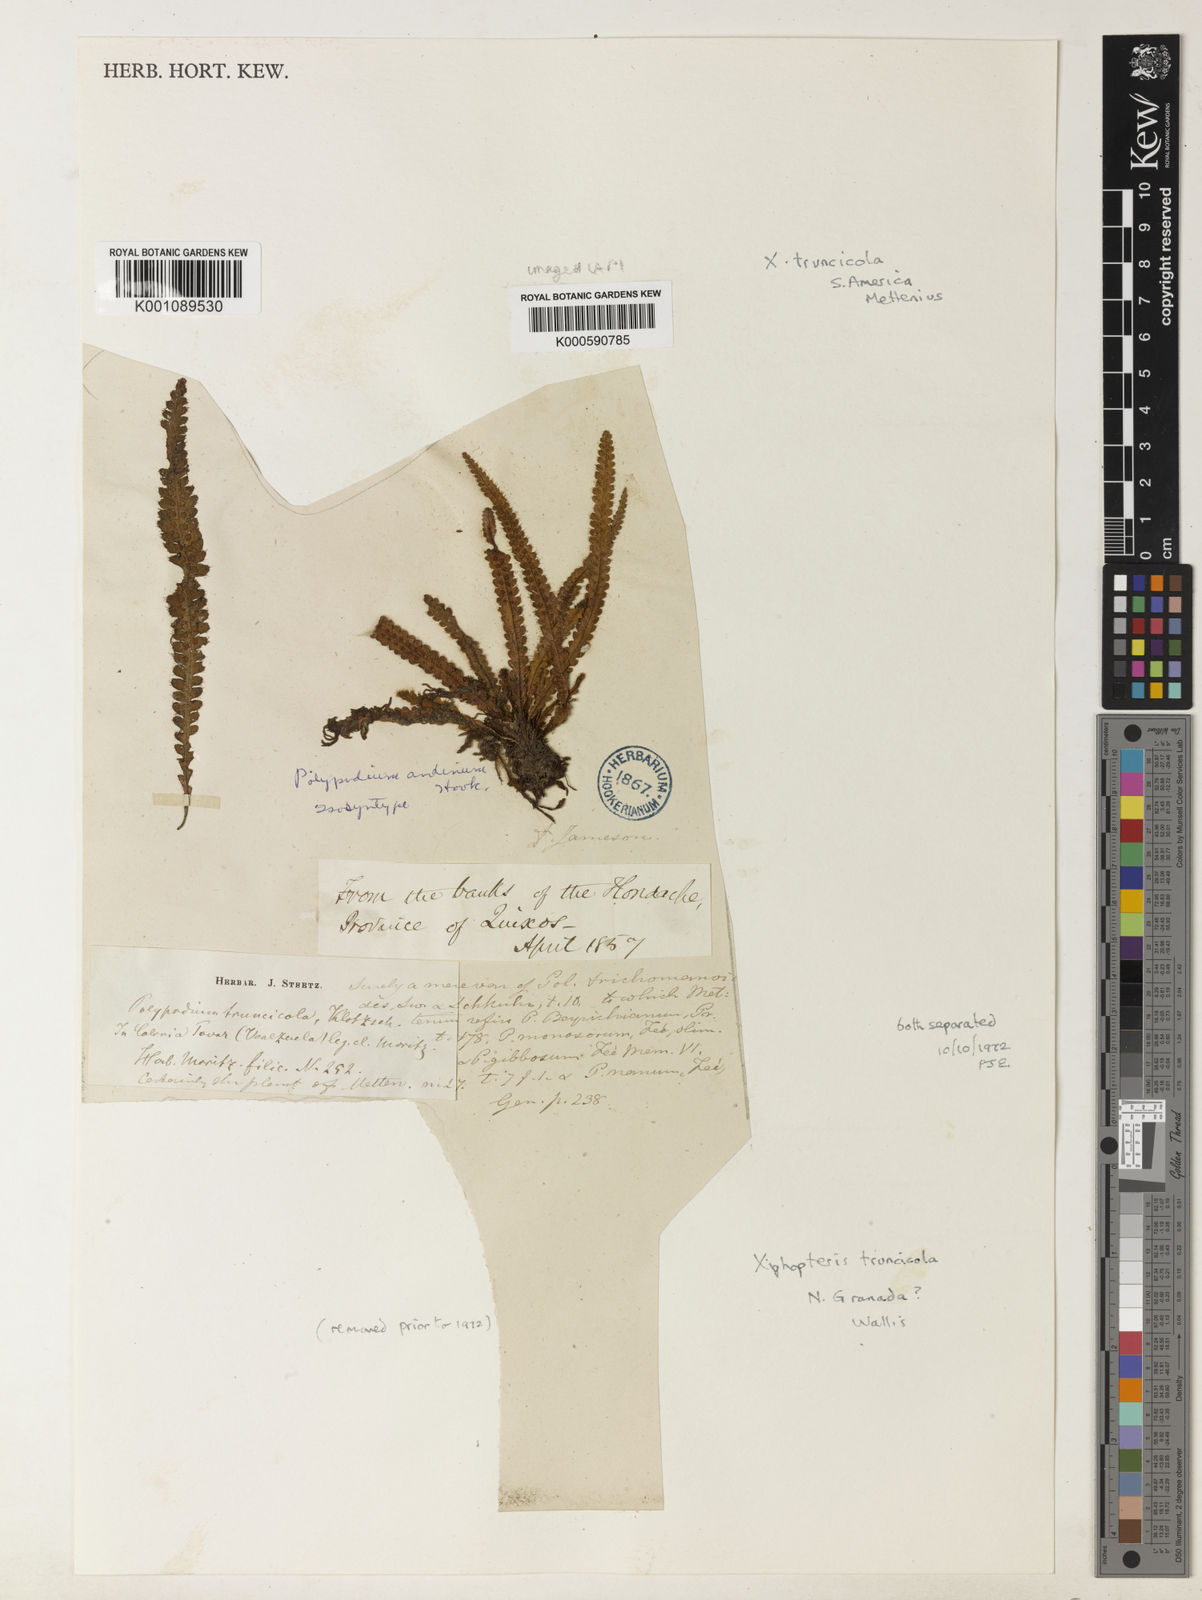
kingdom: Plantae
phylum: Tracheophyta
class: Polypodiopsida
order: Polypodiales
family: Polypodiaceae
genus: Melpomene
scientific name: Melpomene
